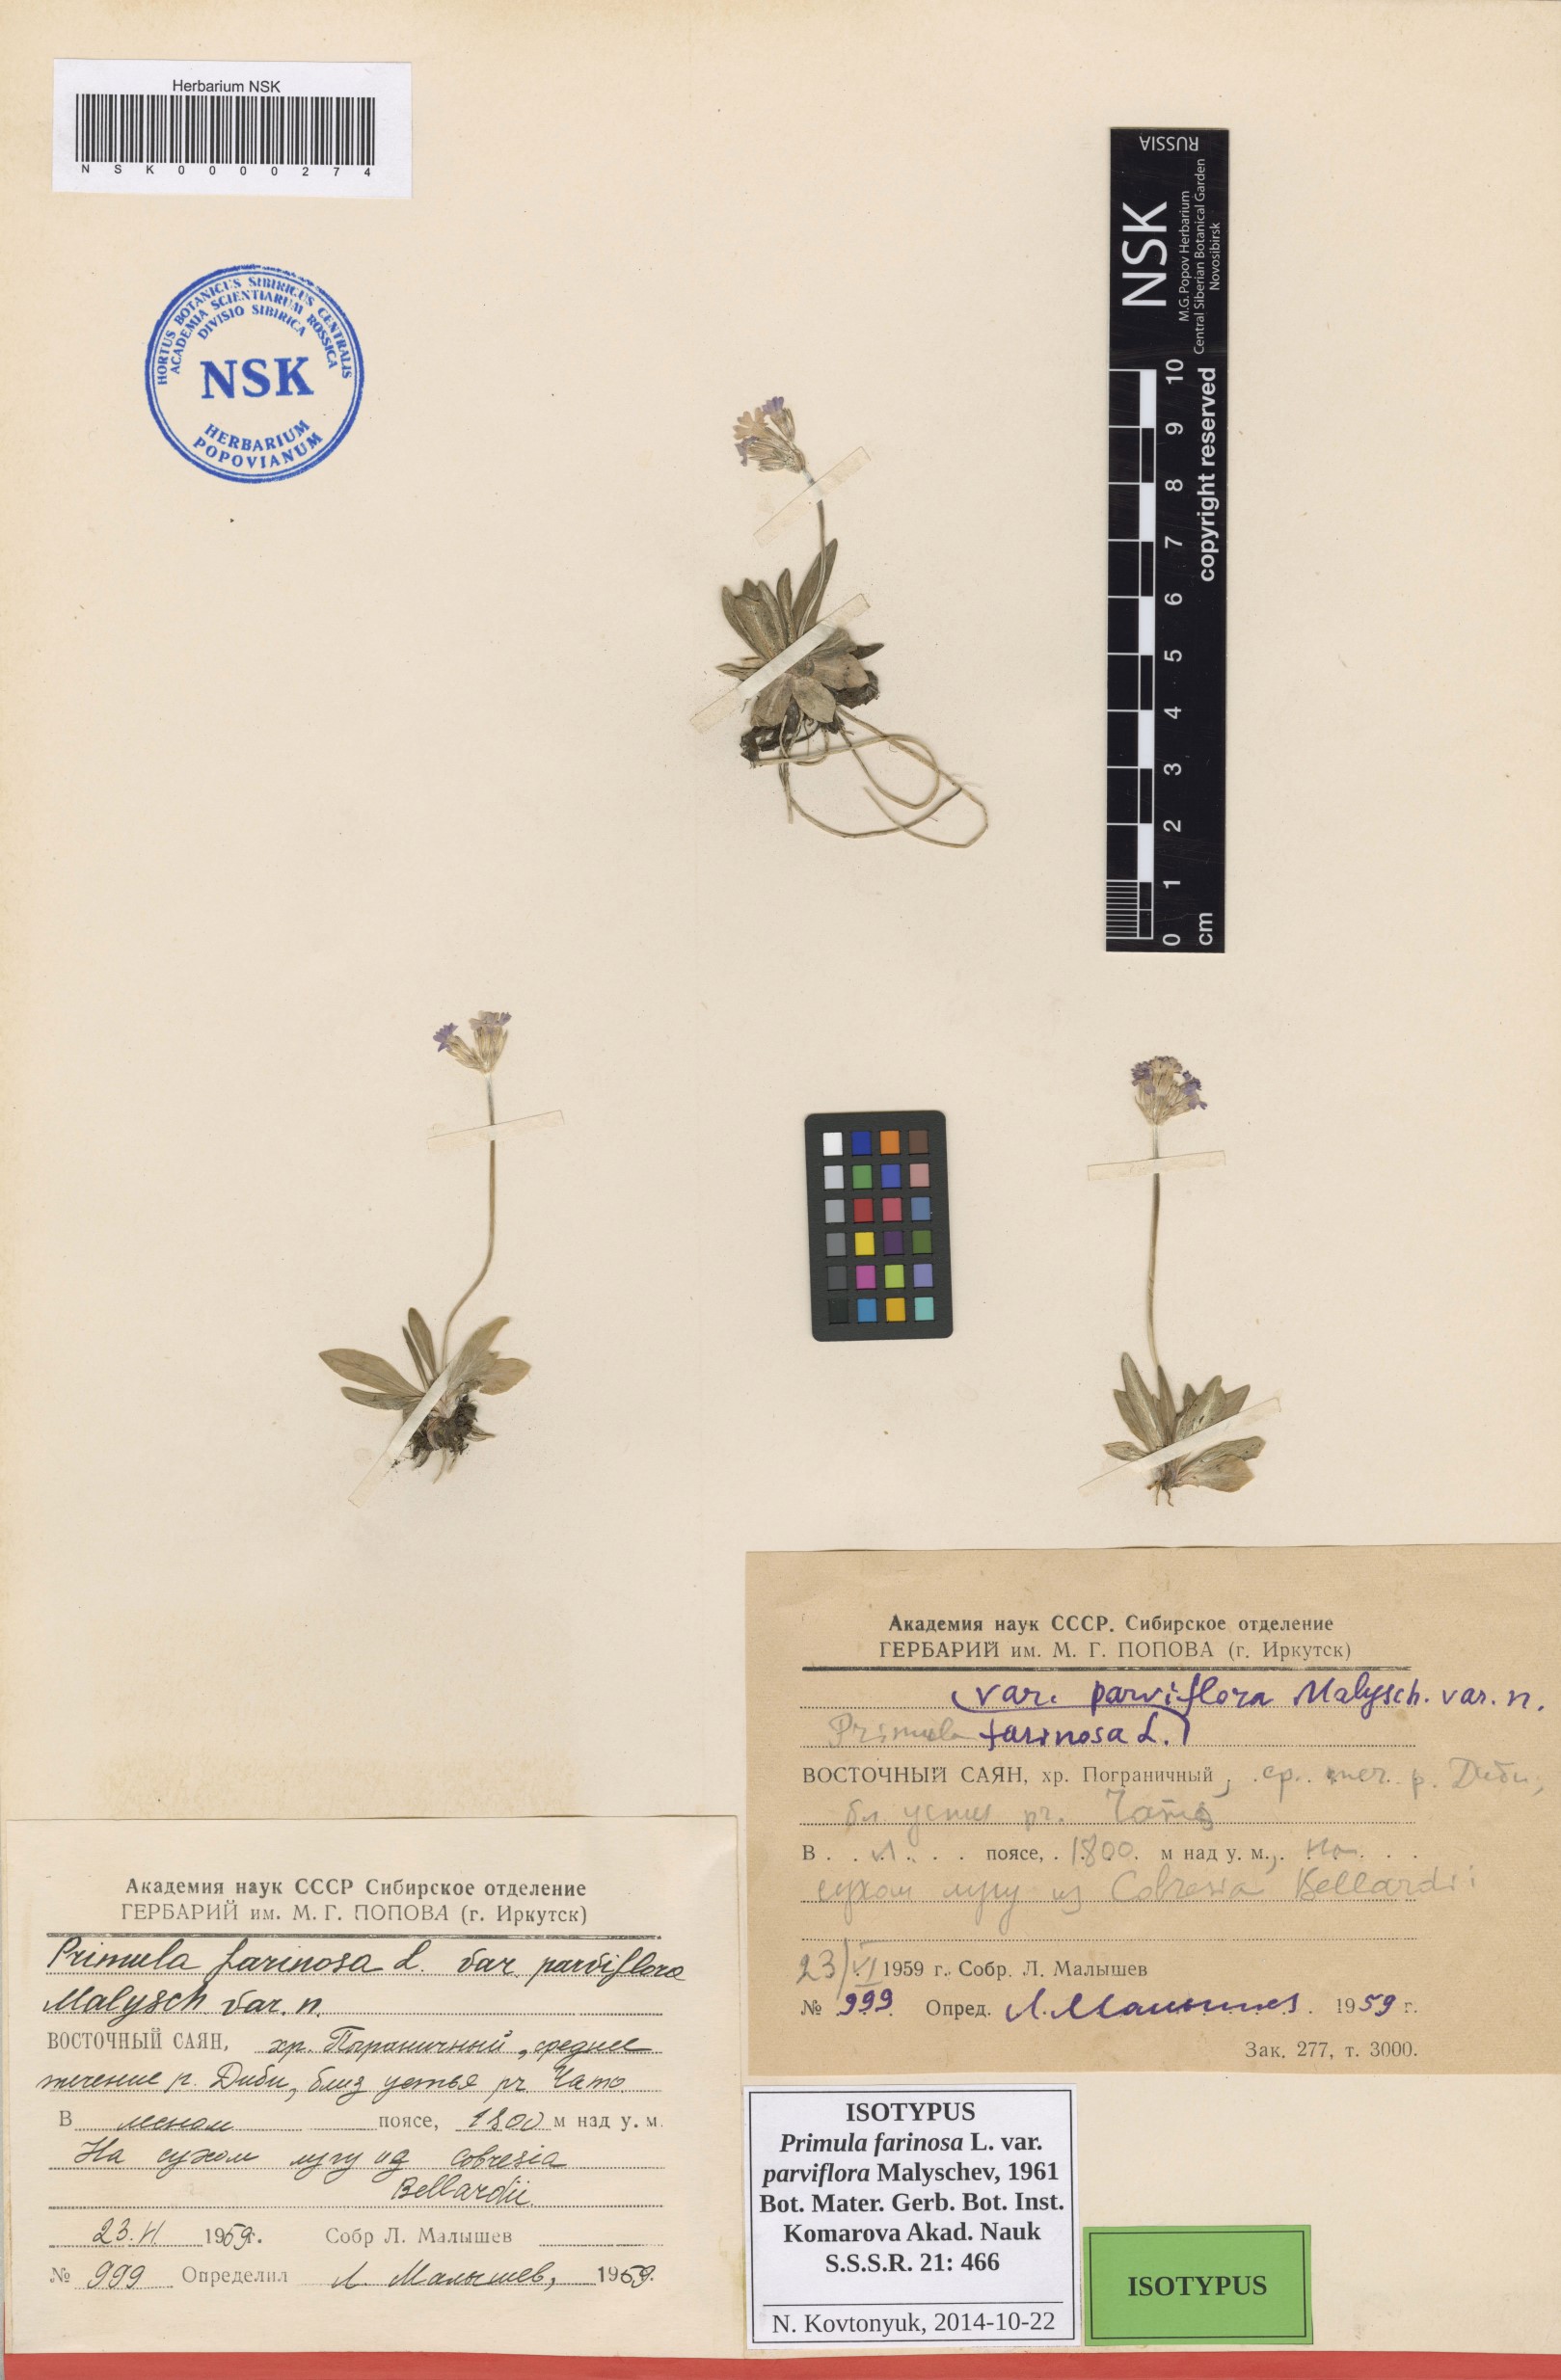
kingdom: Plantae
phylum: Tracheophyta
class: Magnoliopsida
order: Ericales
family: Primulaceae
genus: Primula
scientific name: Primula farinosa
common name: Bird's-eye primrose
